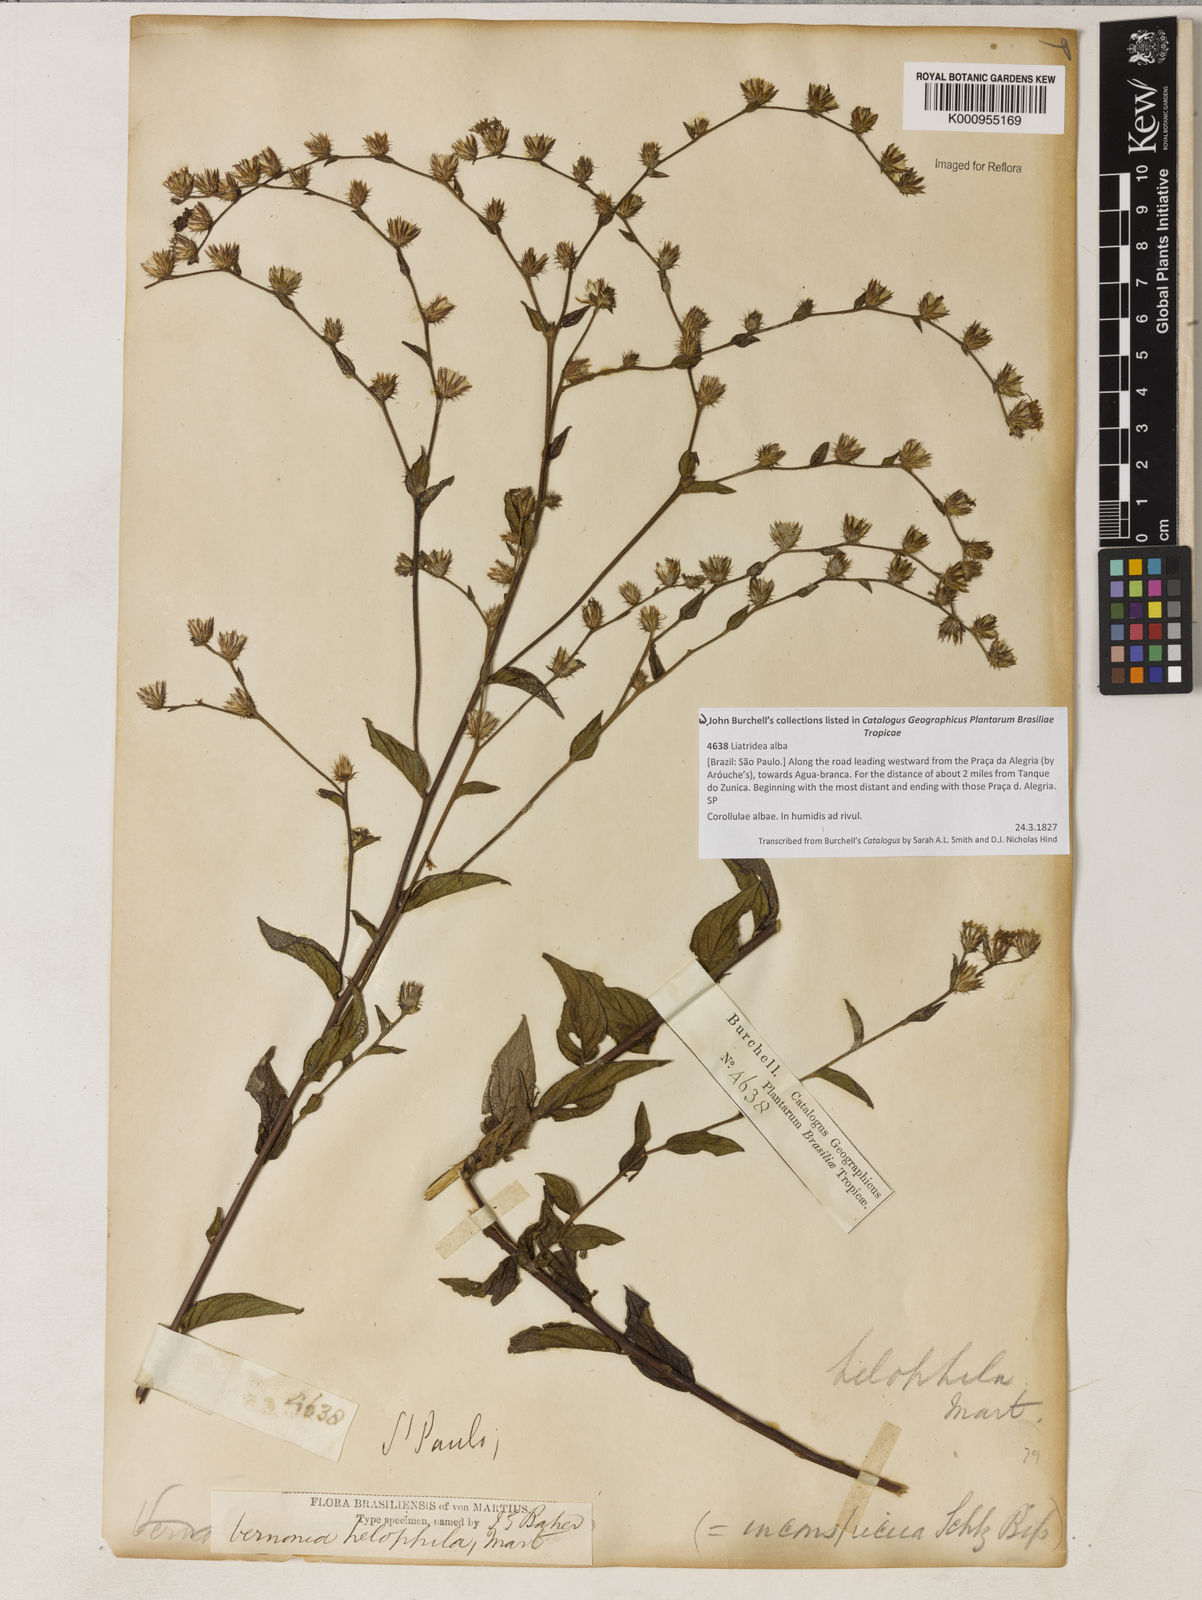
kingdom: Plantae
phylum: Tracheophyta
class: Magnoliopsida
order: Asterales
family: Asteraceae
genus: Lepidaploa
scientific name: Lepidaploa helophila
